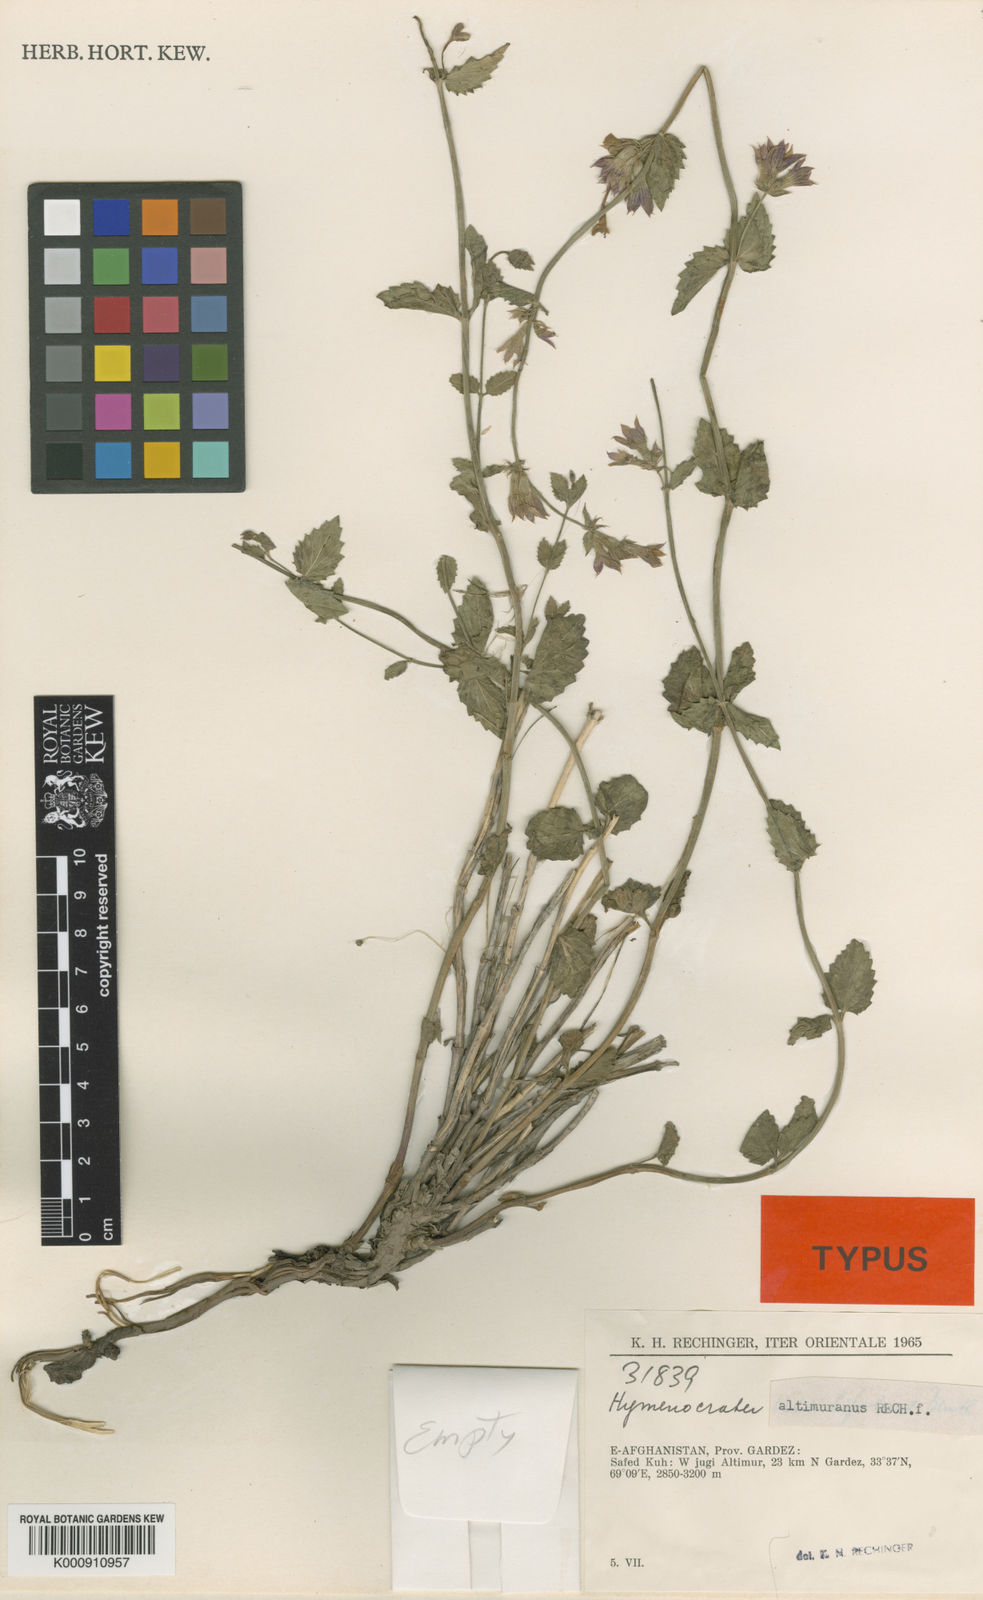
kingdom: Plantae
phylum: Tracheophyta
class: Magnoliopsida
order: Lamiales
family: Lamiaceae
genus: Nepeta
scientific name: Nepeta altimurana
